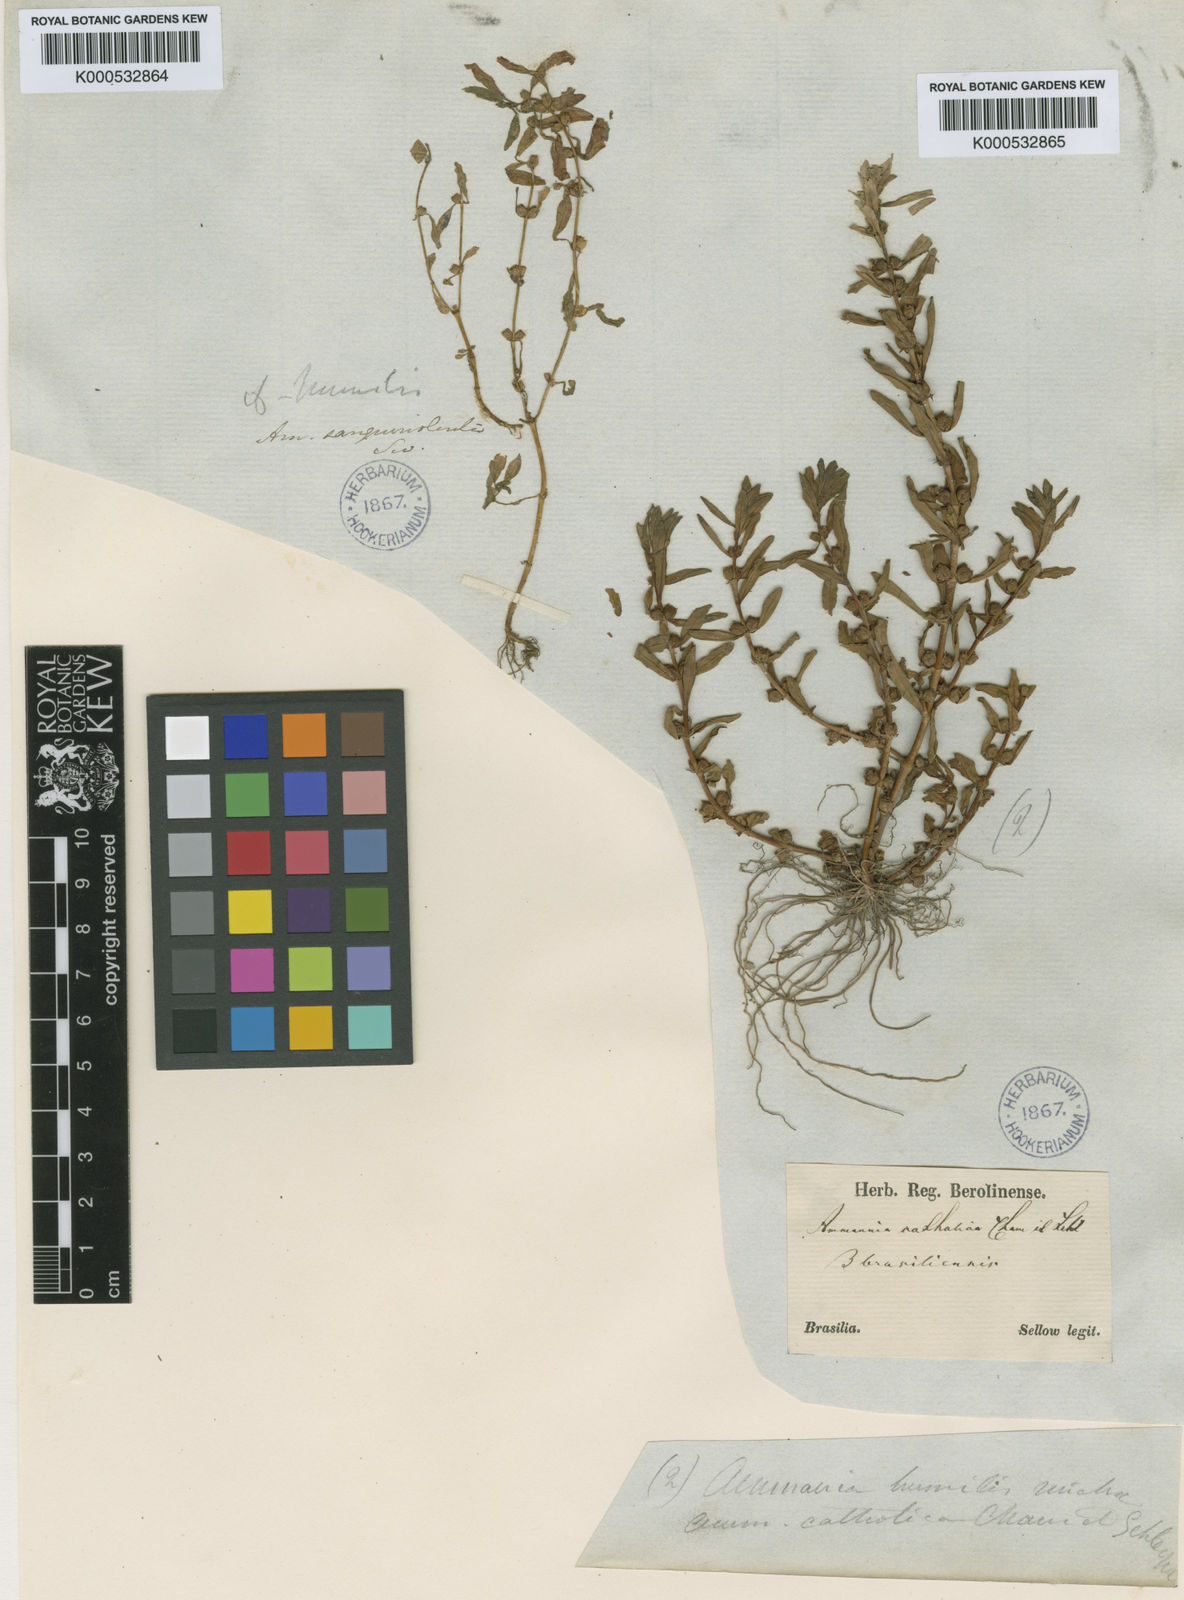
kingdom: Plantae
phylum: Tracheophyta
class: Magnoliopsida
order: Myrtales
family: Lythraceae
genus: Rotala
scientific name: Rotala ramosior
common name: Lowland rotala
